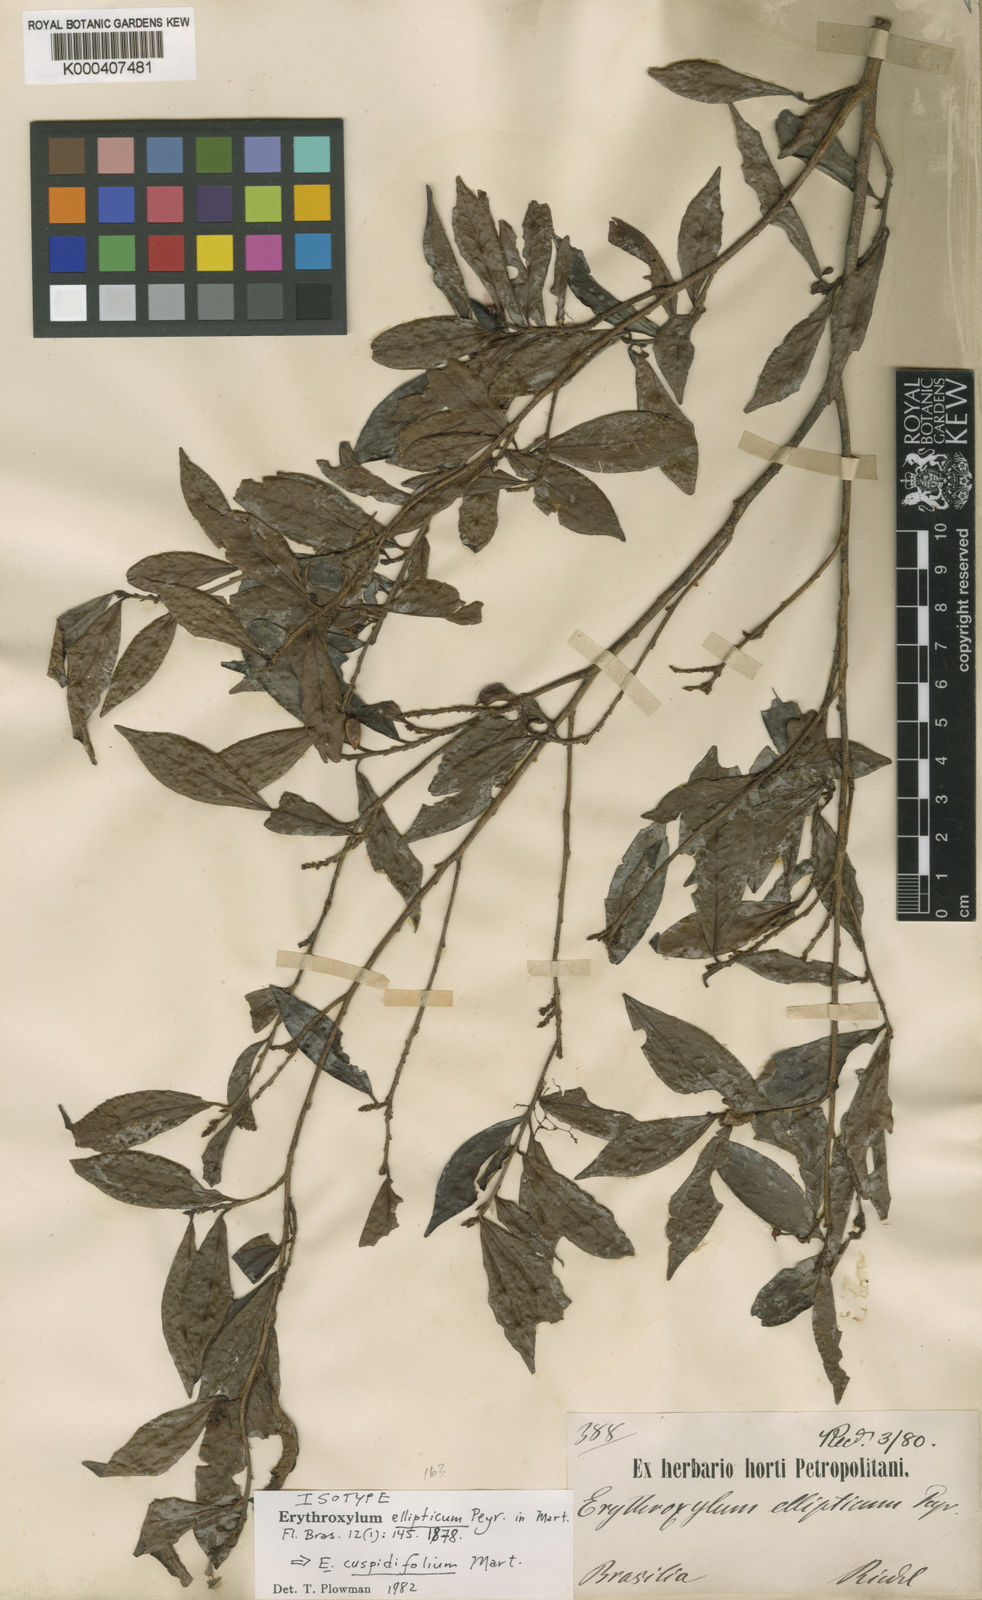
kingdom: Plantae
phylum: Tracheophyta
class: Magnoliopsida
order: Malpighiales
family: Erythroxylaceae
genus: Erythroxylum
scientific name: Erythroxylum cuspidifolium
